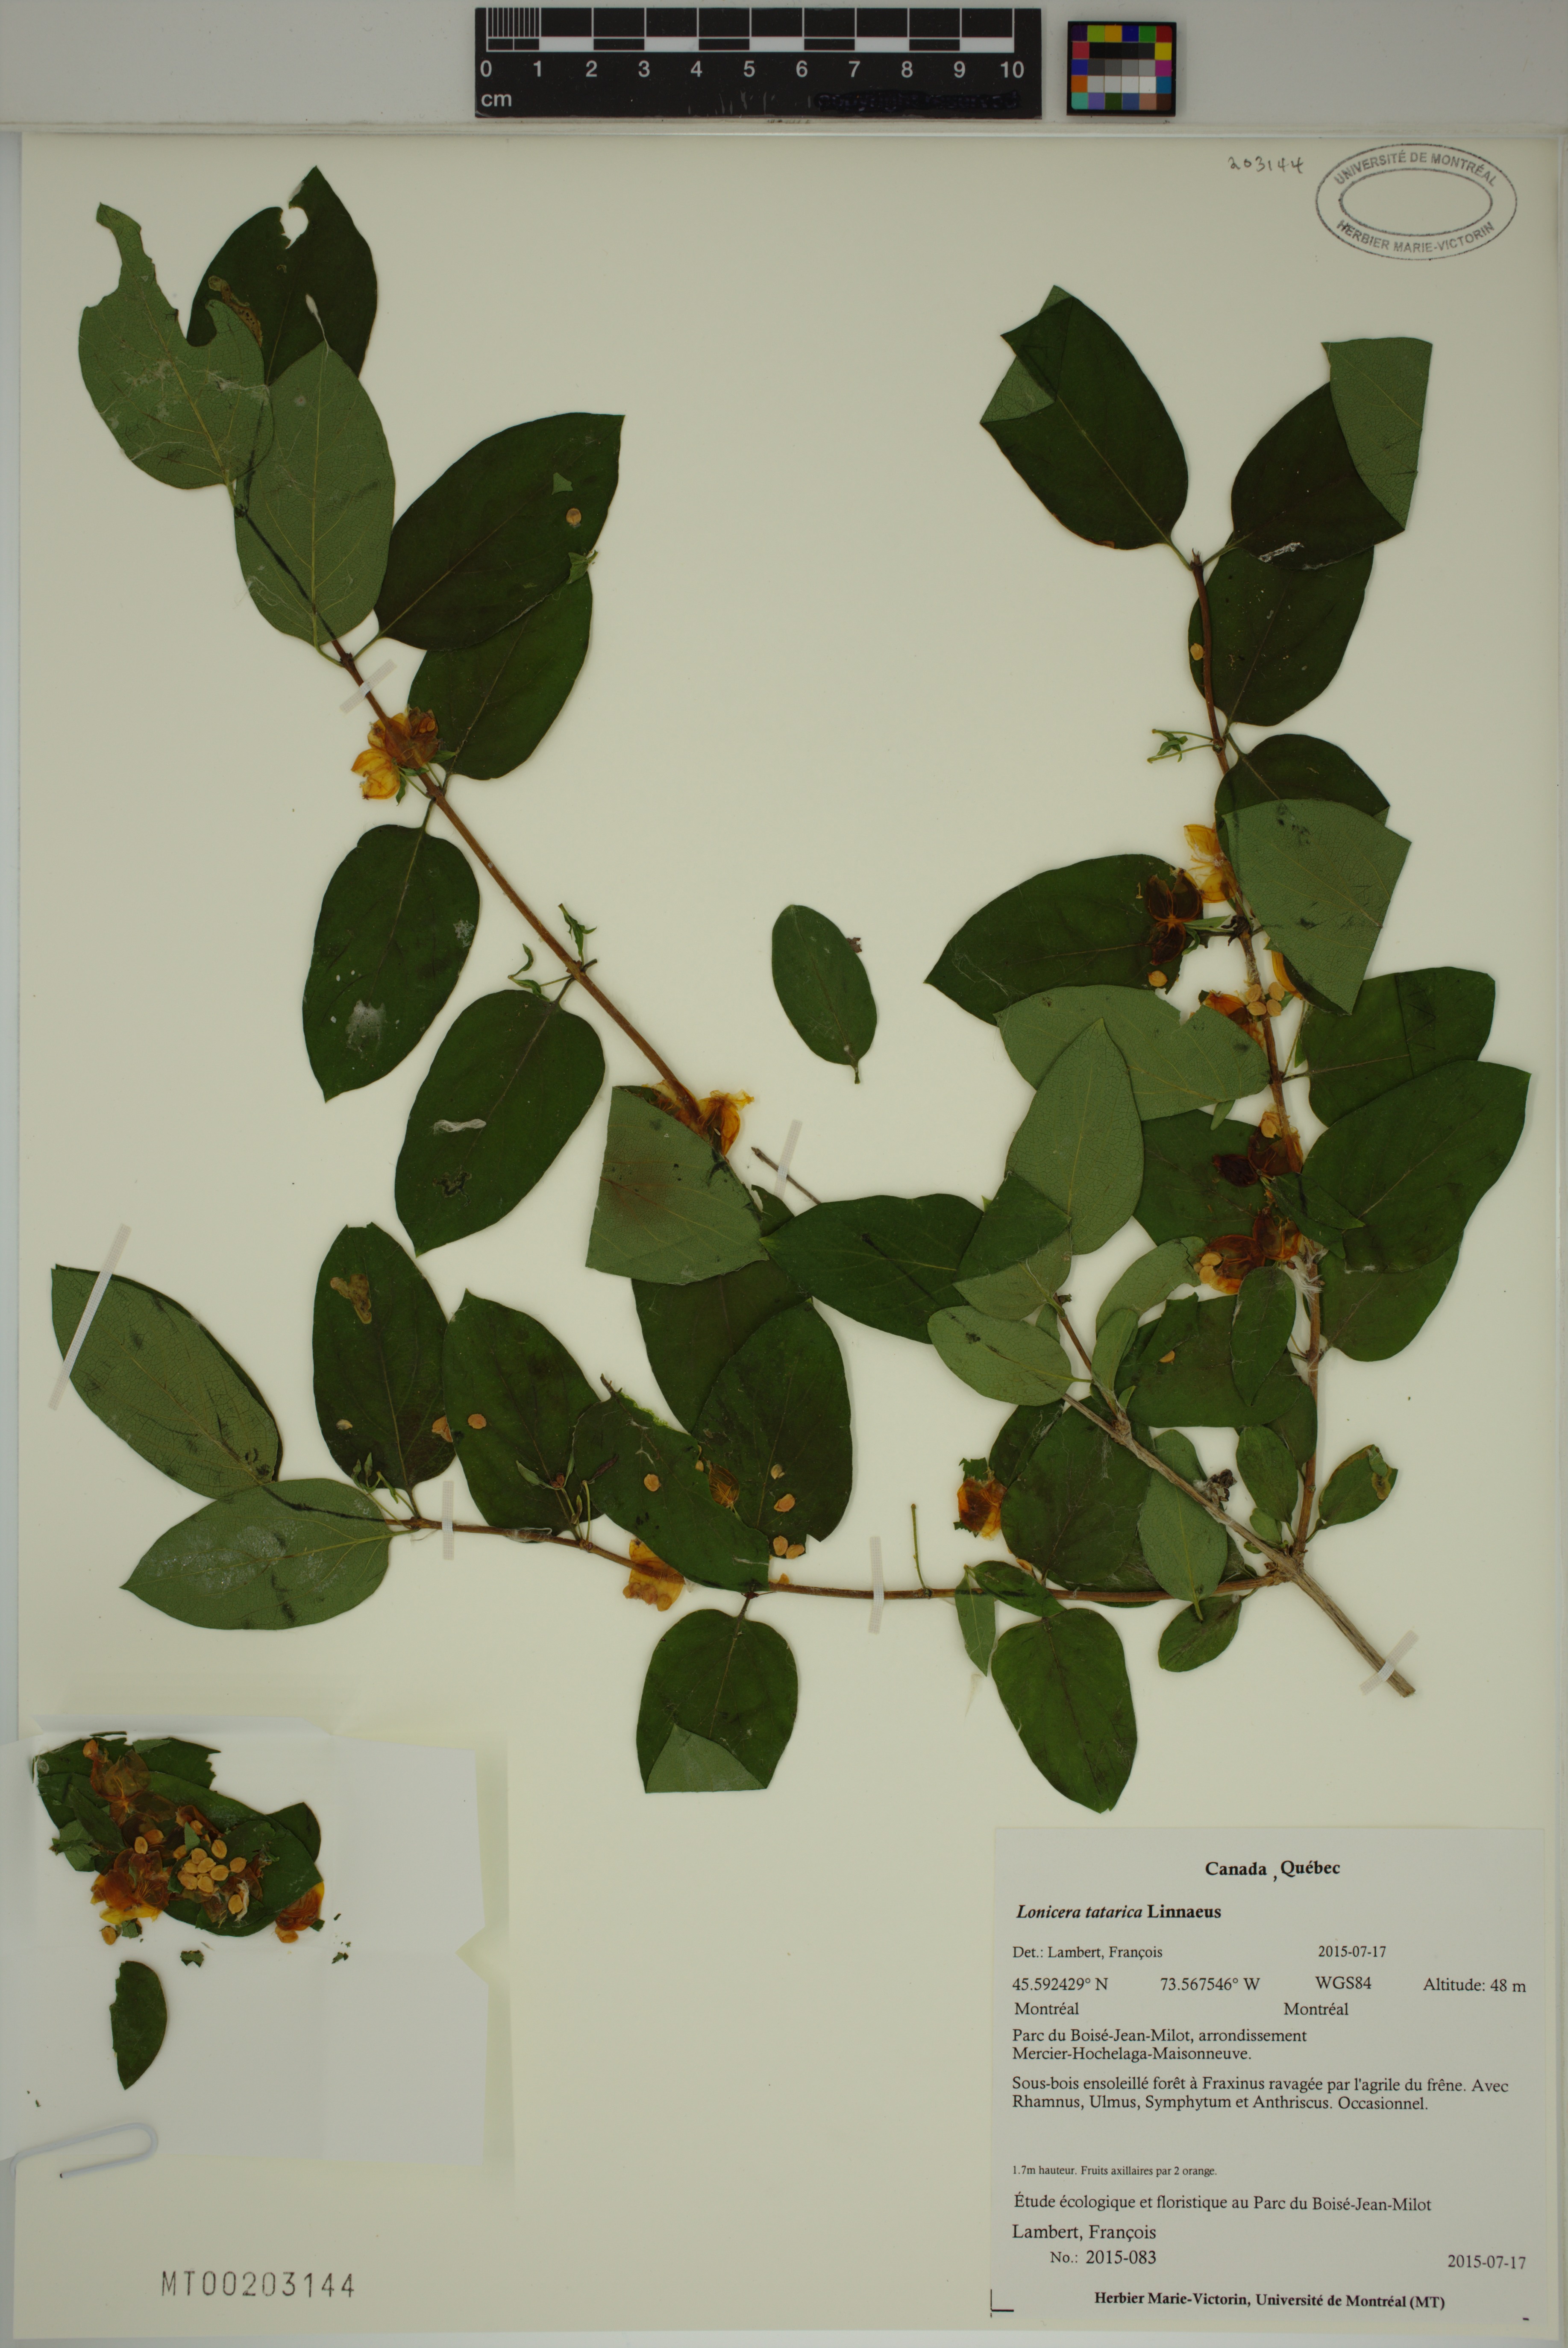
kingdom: Plantae
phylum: Tracheophyta
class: Magnoliopsida
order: Dipsacales
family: Caprifoliaceae
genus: Lonicera
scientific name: Lonicera tatarica
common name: Tatarian honeysuckle
